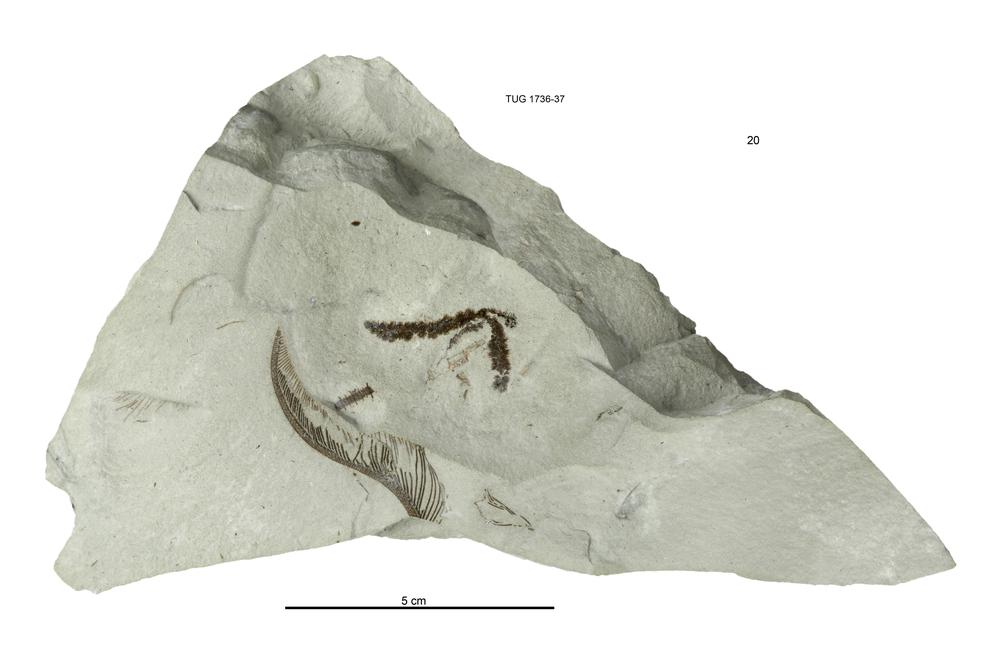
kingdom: Animalia
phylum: Echinodermata
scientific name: Echinodermata
